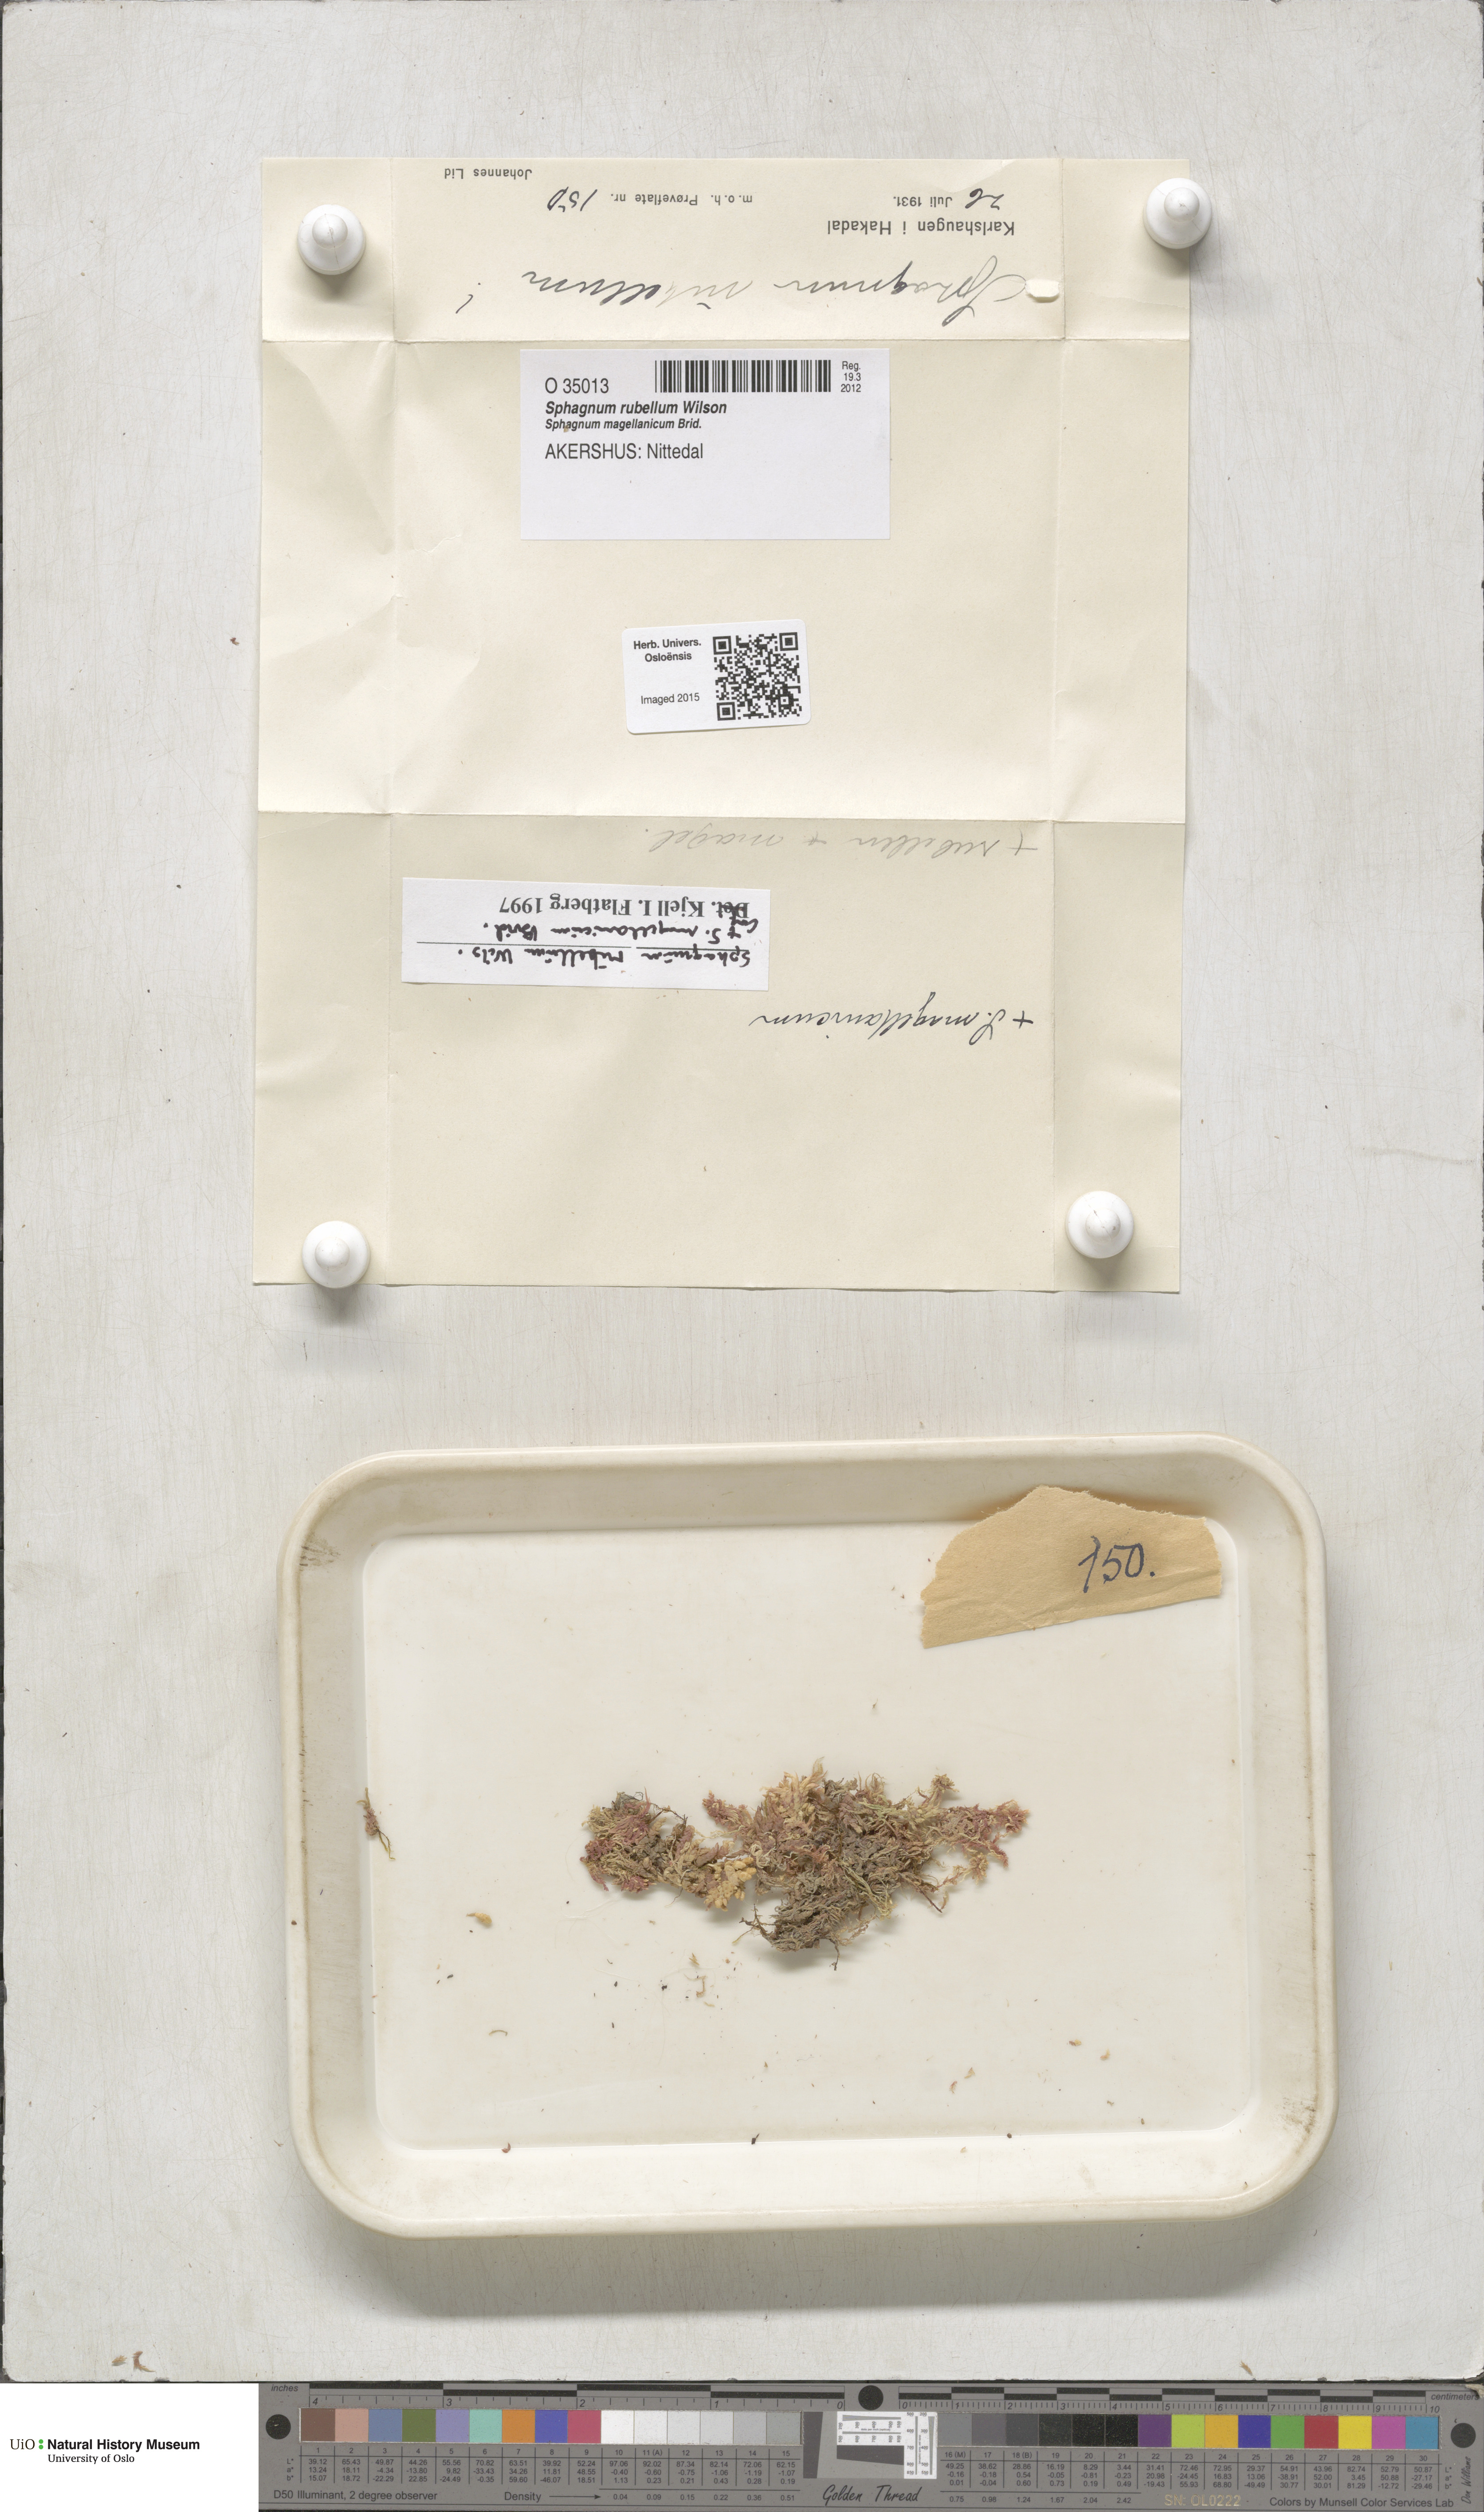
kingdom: Plantae
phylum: Bryophyta
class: Sphagnopsida
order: Sphagnales
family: Sphagnaceae
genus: Sphagnum
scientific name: Sphagnum rubellum
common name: Red peat moss
